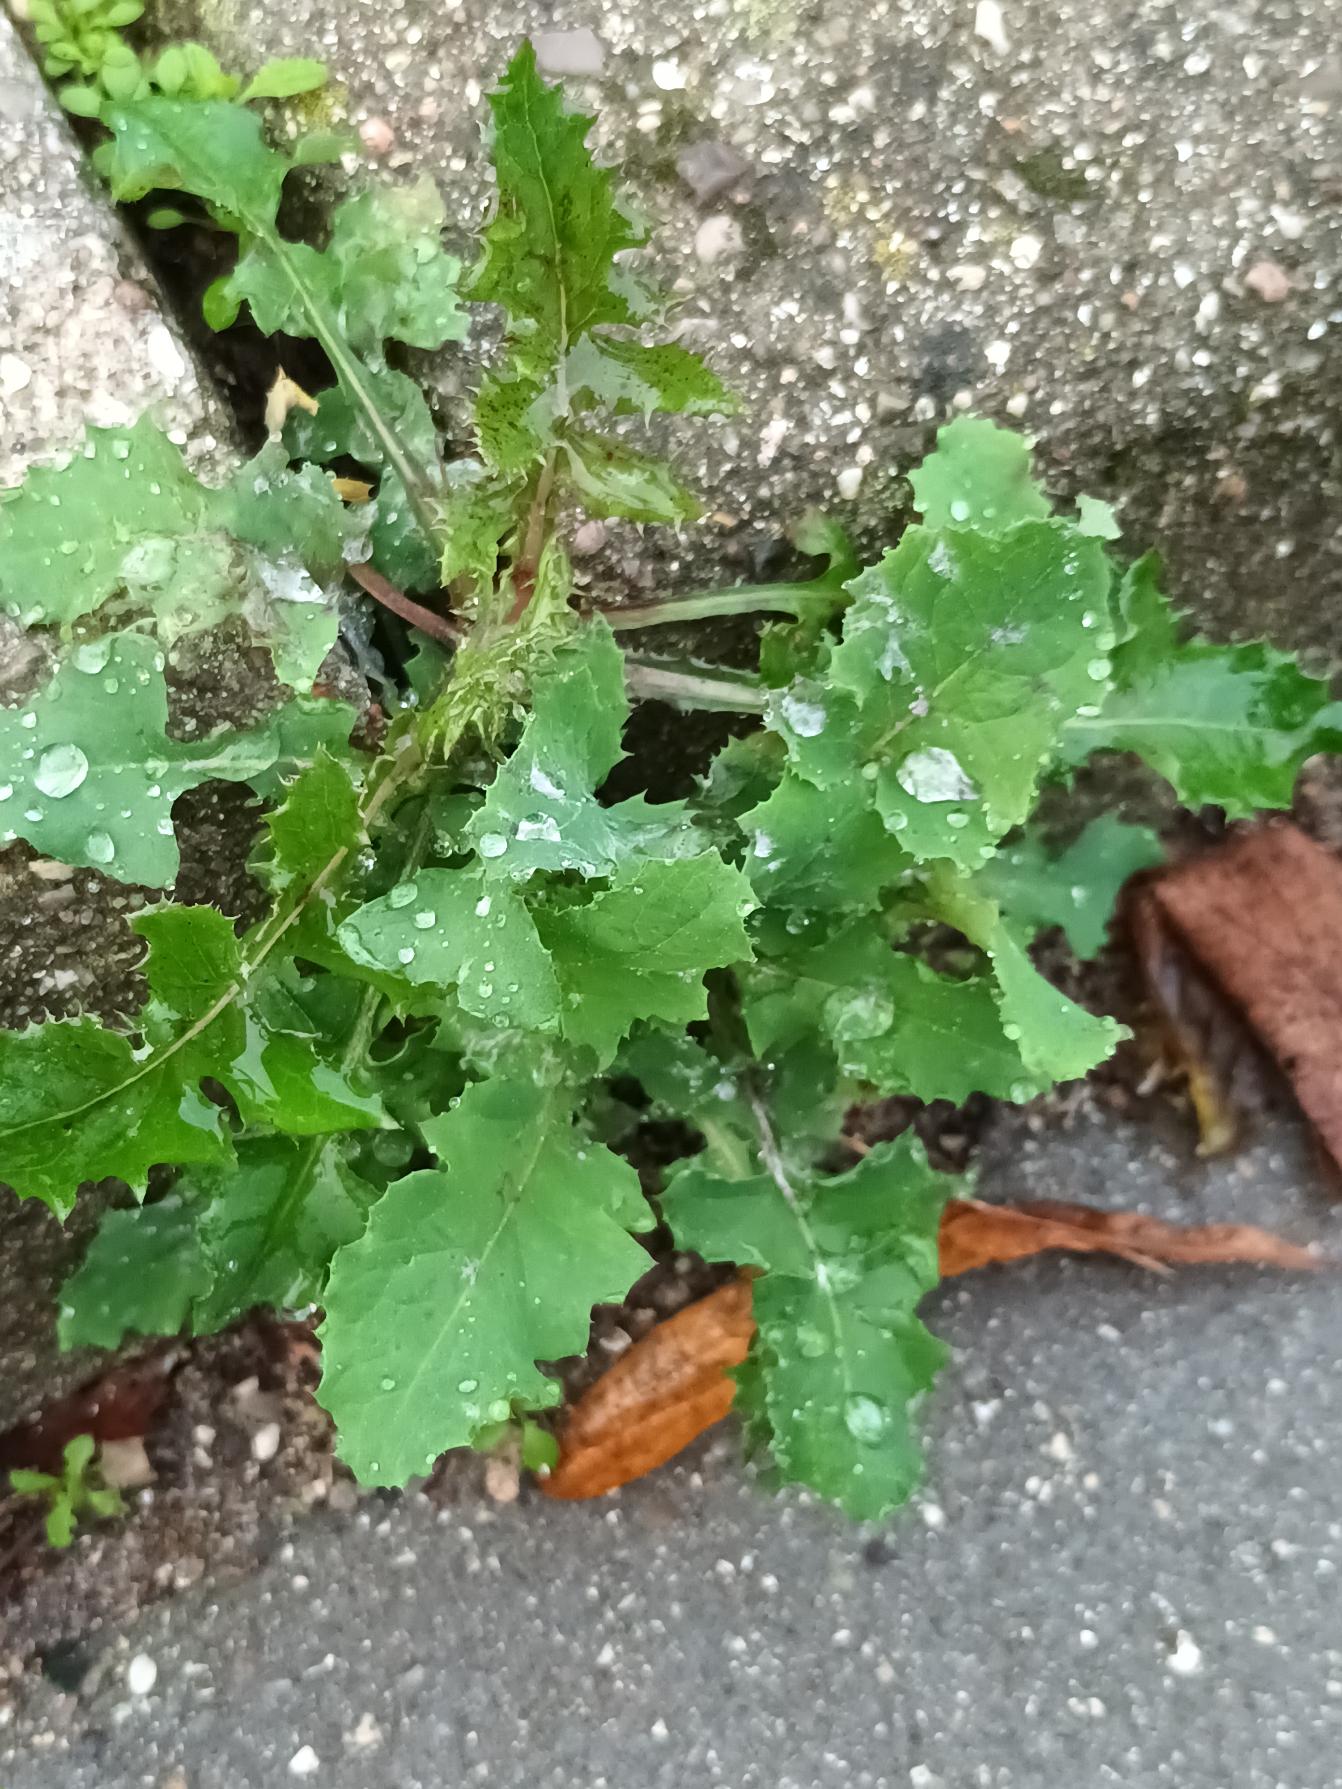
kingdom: Plantae
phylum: Tracheophyta
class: Magnoliopsida
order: Asterales
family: Asteraceae
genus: Sonchus
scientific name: Sonchus oleraceus
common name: Almindelig svinemælk
